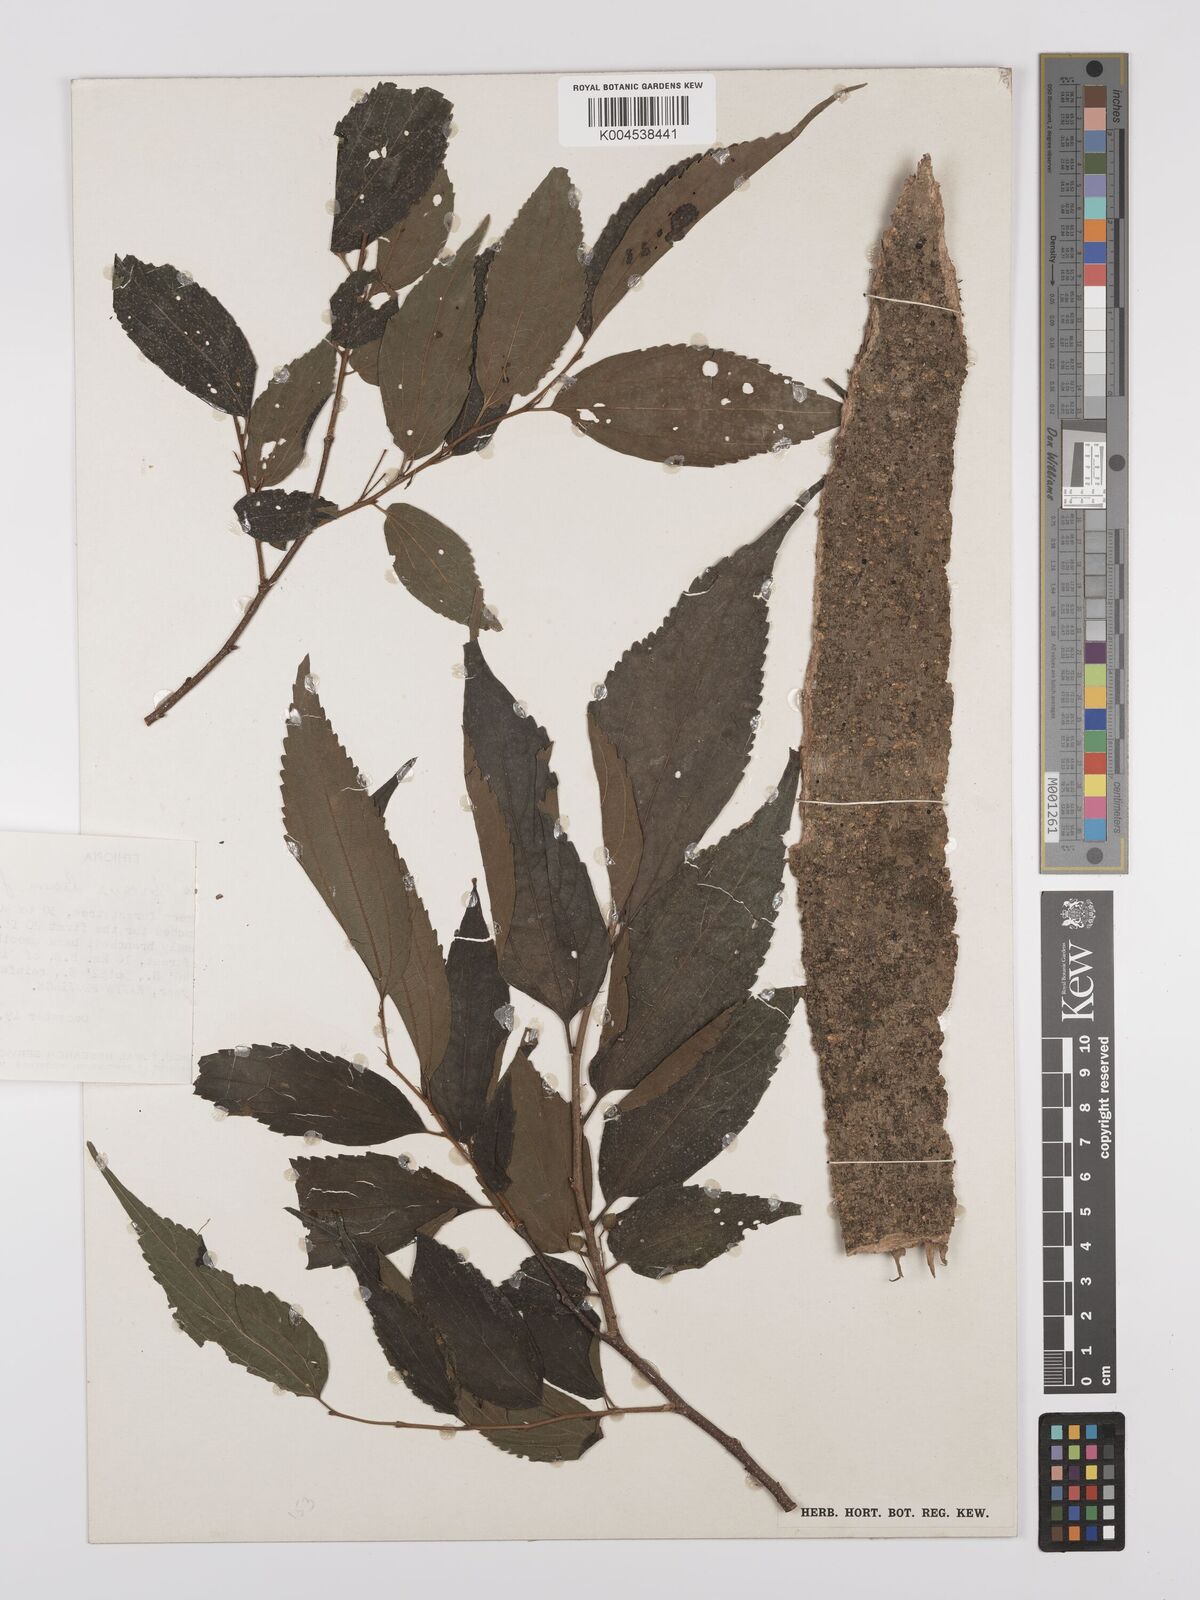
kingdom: Plantae
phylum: Tracheophyta
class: Magnoliopsida
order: Rosales
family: Cannabaceae
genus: Celtis
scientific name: Celtis africana
